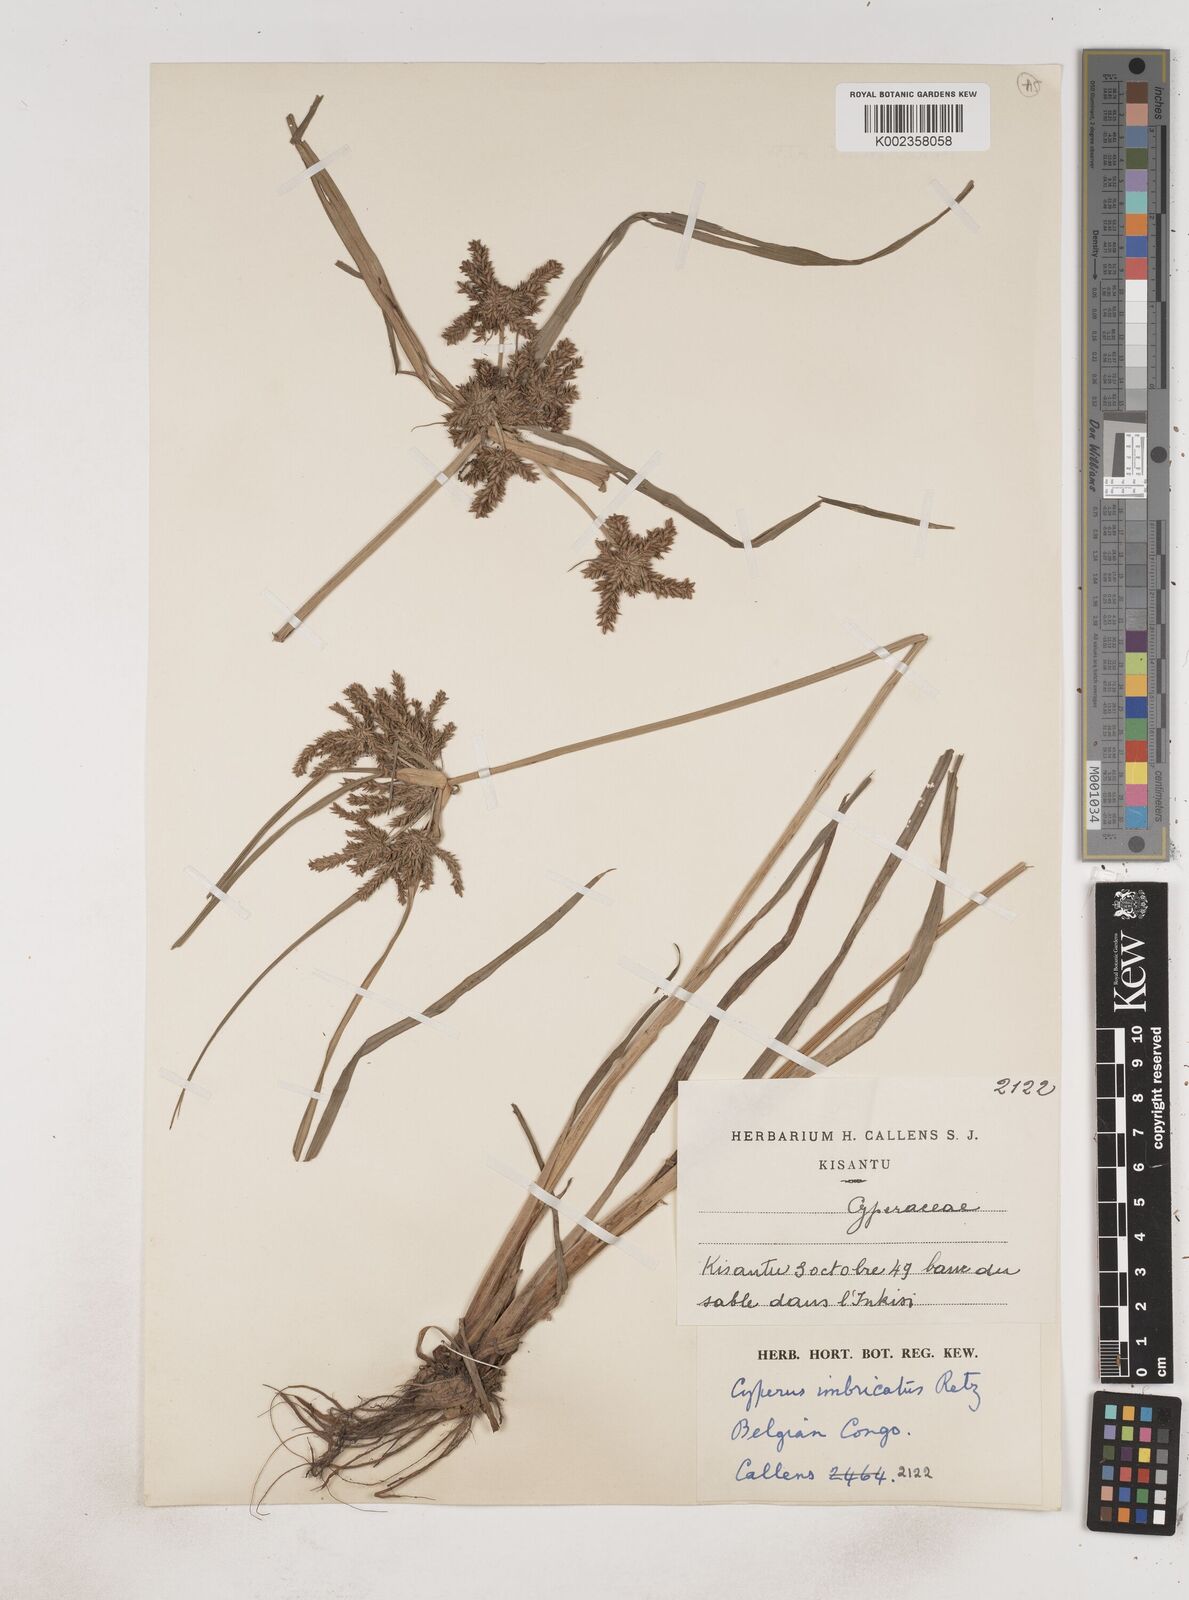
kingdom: Plantae
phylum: Tracheophyta
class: Liliopsida
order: Poales
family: Cyperaceae
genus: Cyperus
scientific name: Cyperus imbricatus
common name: Shingle flatsedge
